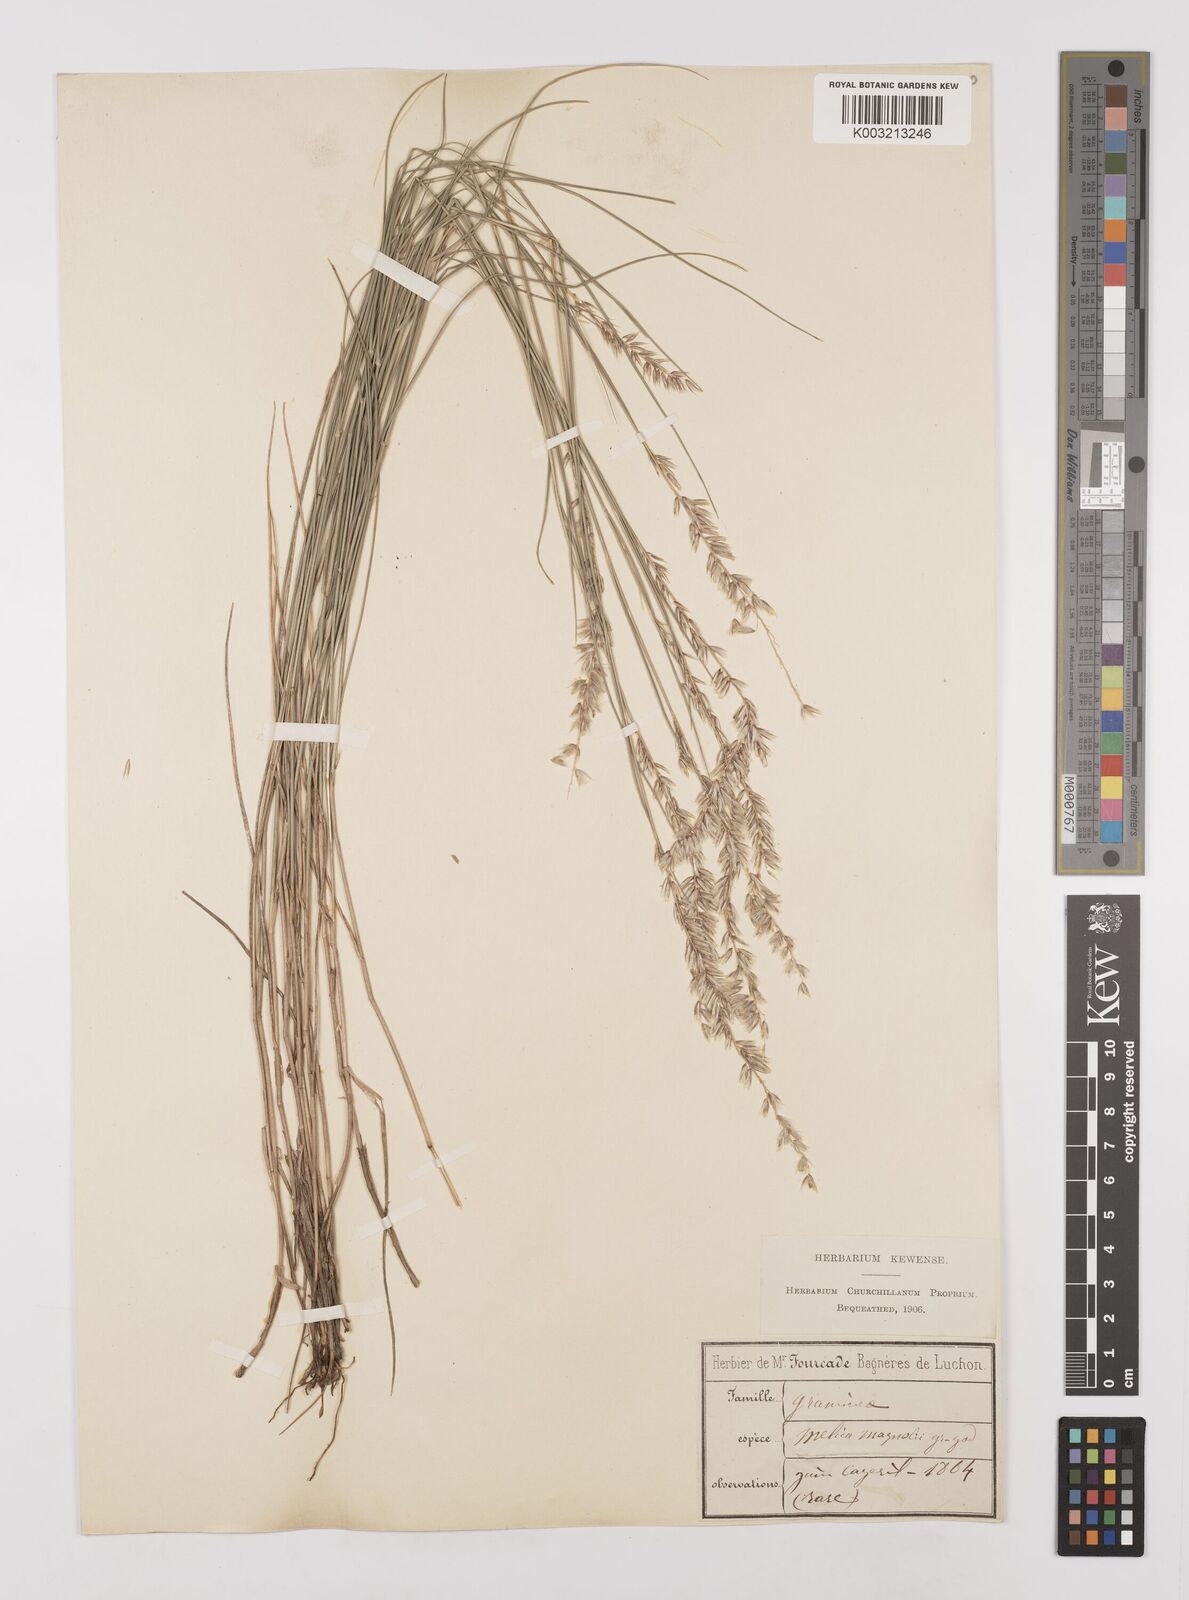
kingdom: Plantae
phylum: Tracheophyta
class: Liliopsida
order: Poales
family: Poaceae
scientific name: Poaceae
